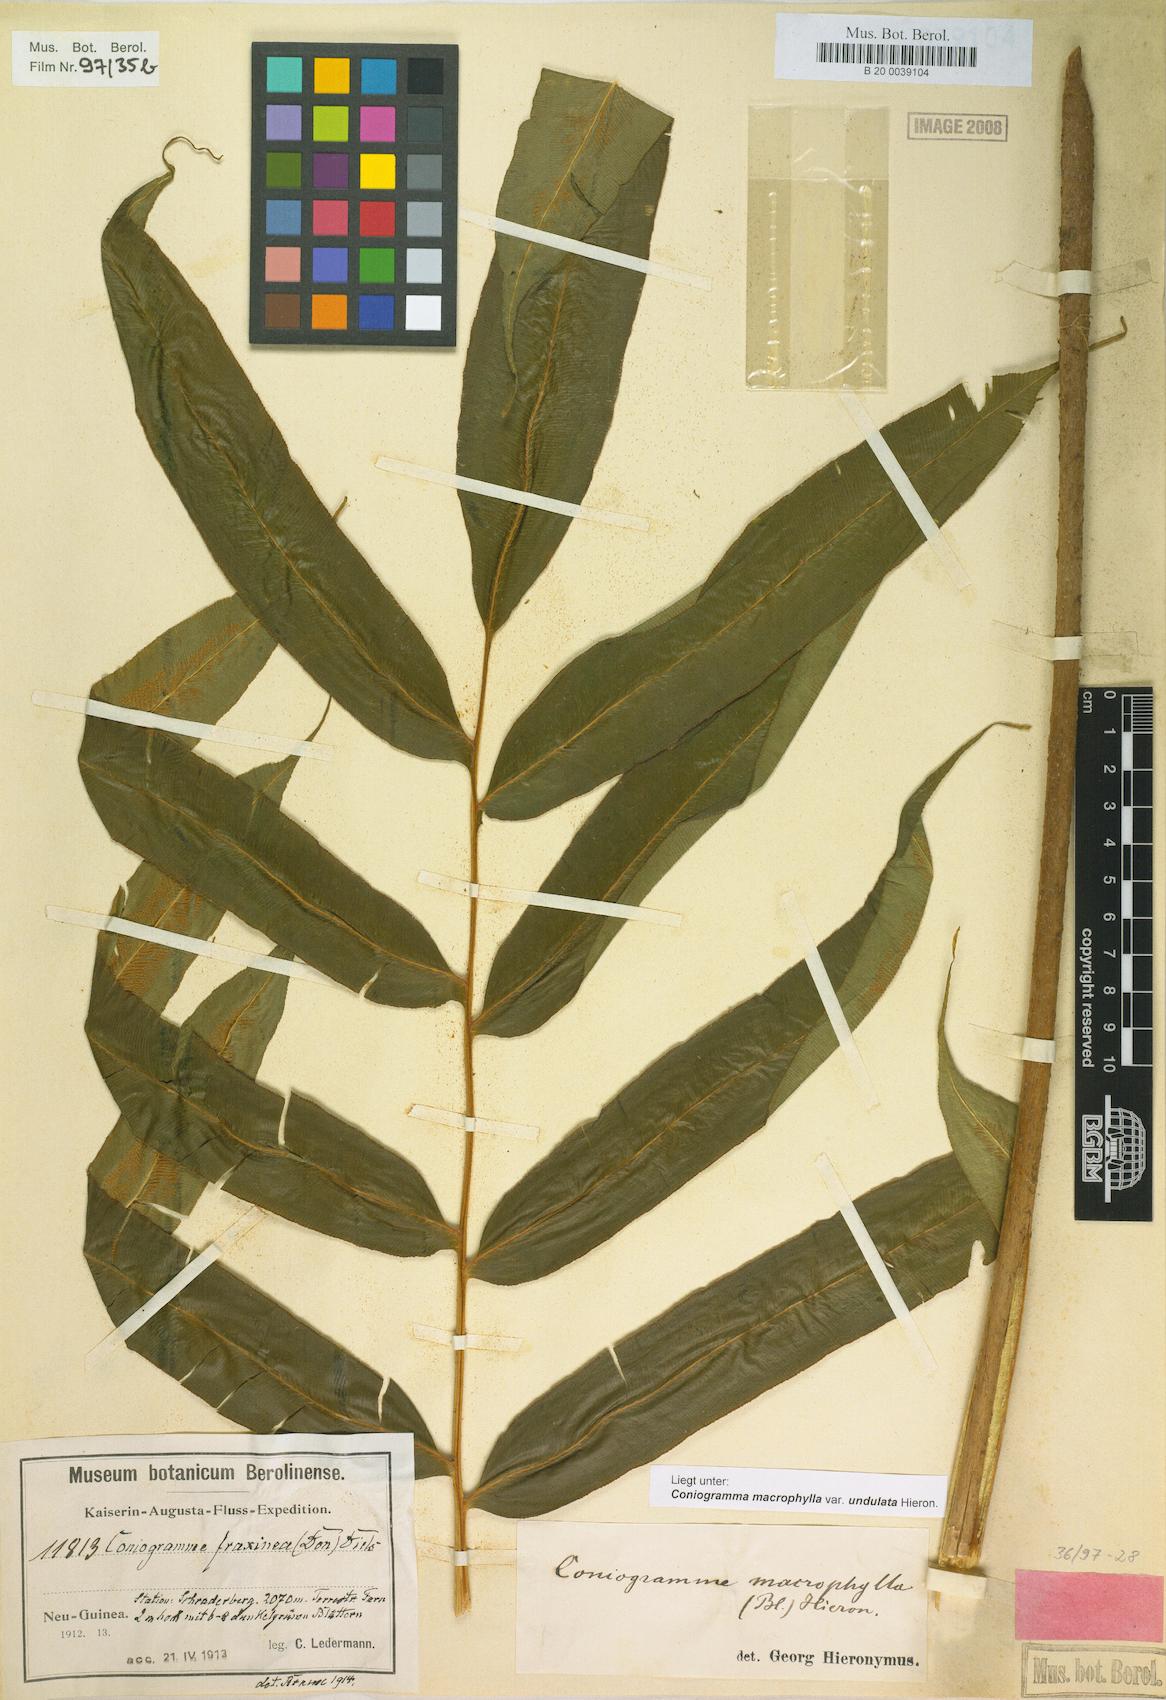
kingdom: Plantae
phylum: Tracheophyta
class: Polypodiopsida
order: Polypodiales
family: Pteridaceae
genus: Coniogramme
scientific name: Coniogramme fraxinea
